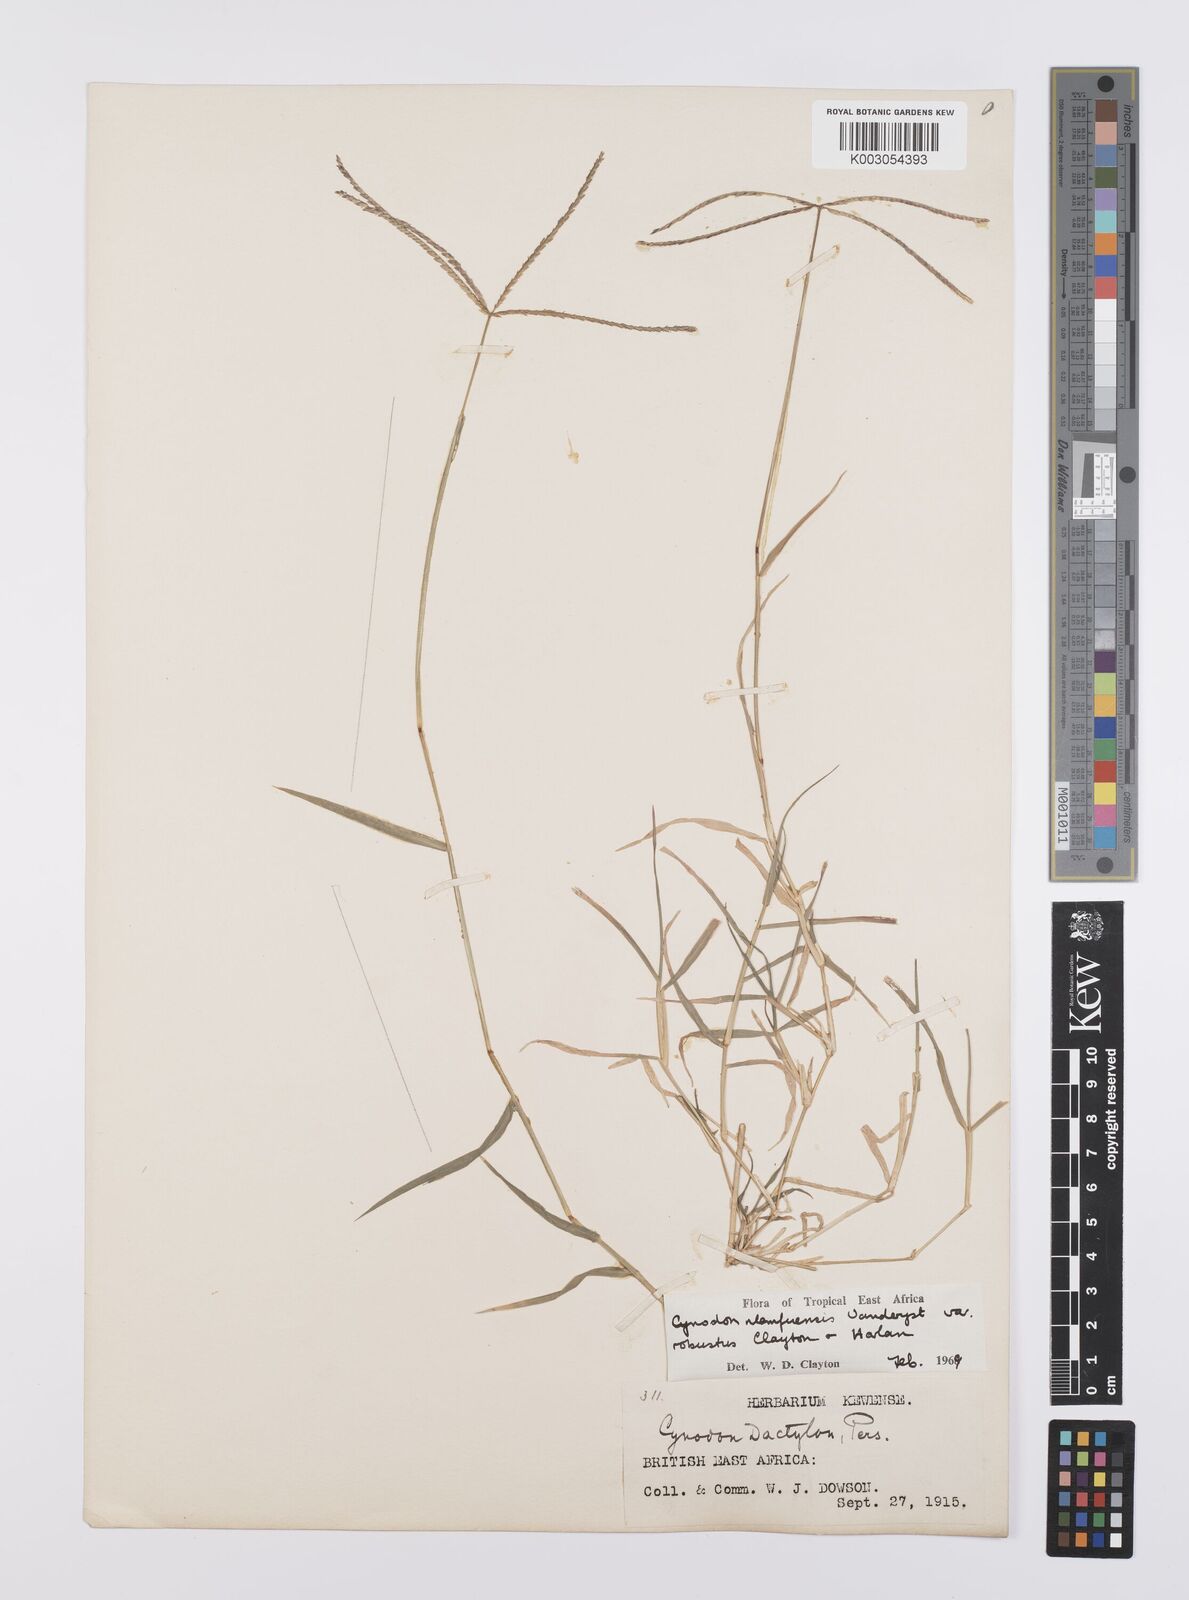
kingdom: Plantae
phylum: Tracheophyta
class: Liliopsida
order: Poales
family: Poaceae
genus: Cynodon
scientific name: Cynodon nlemfuensis
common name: African bermudagrass
